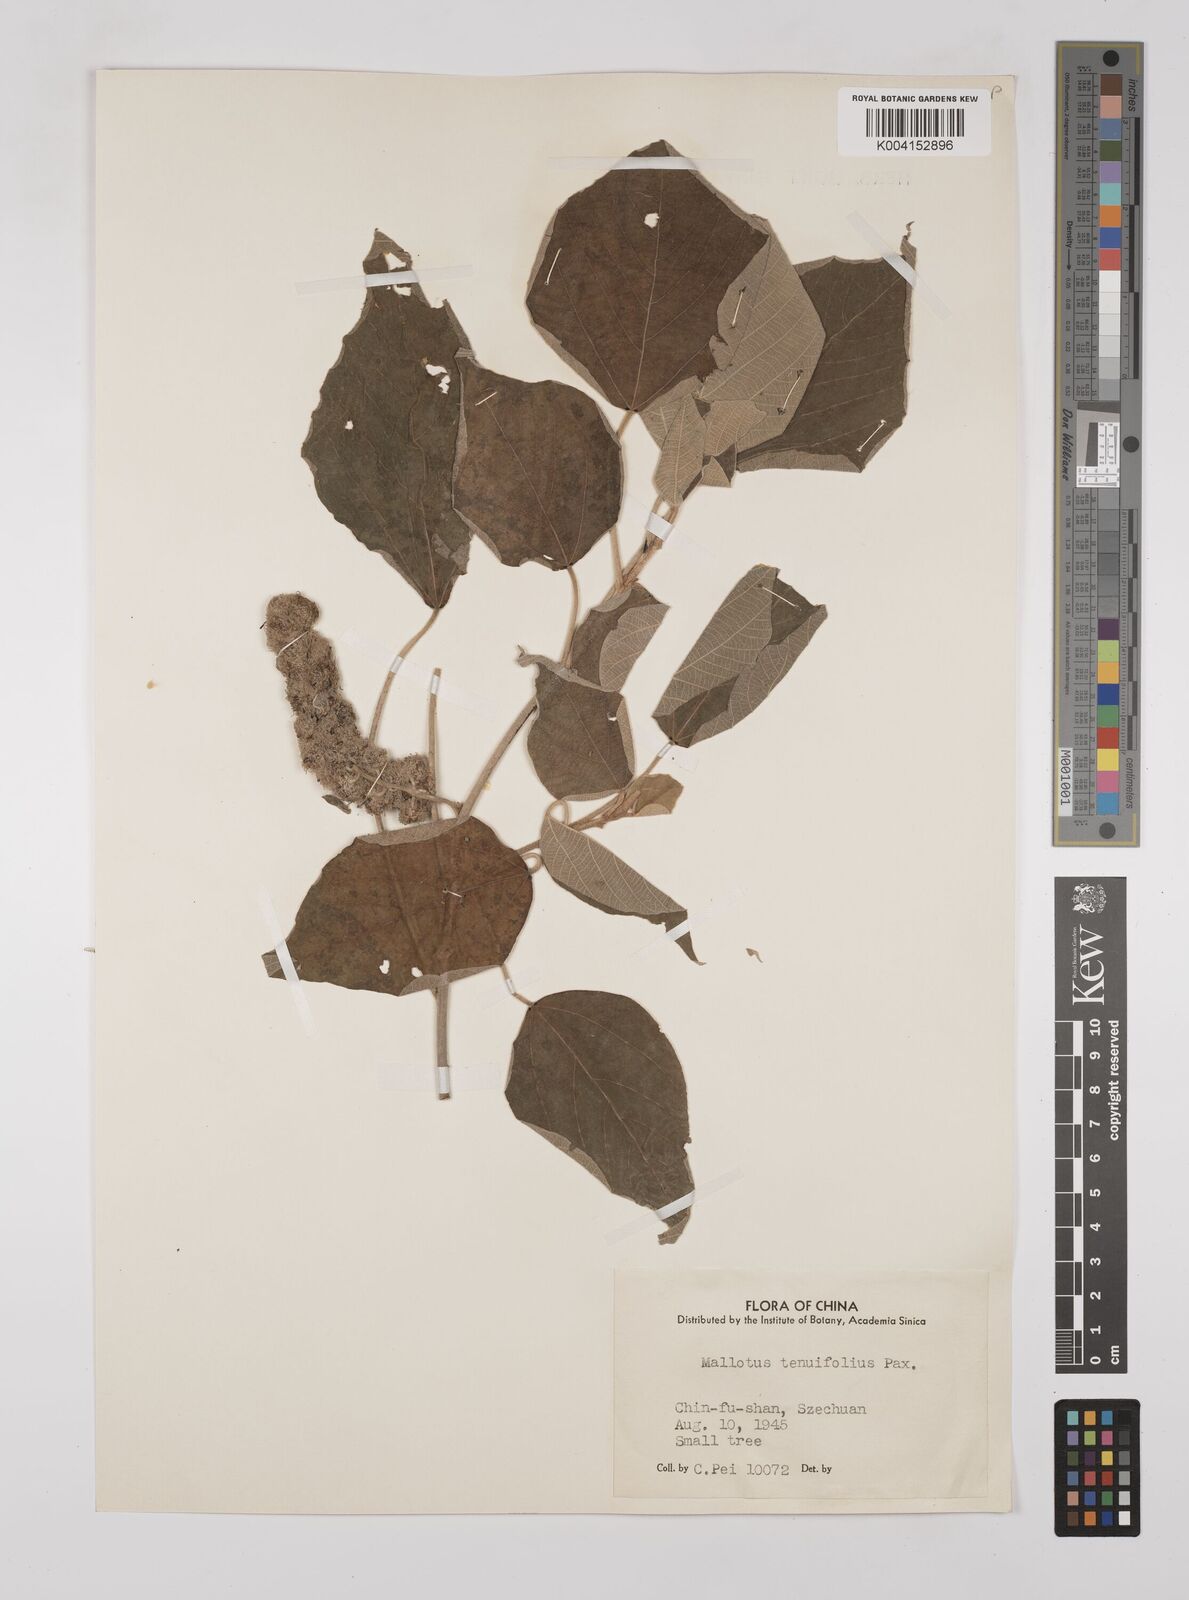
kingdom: Plantae
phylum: Tracheophyta
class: Magnoliopsida
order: Malpighiales
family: Euphorbiaceae
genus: Mallotus
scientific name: Mallotus tenuifolius
